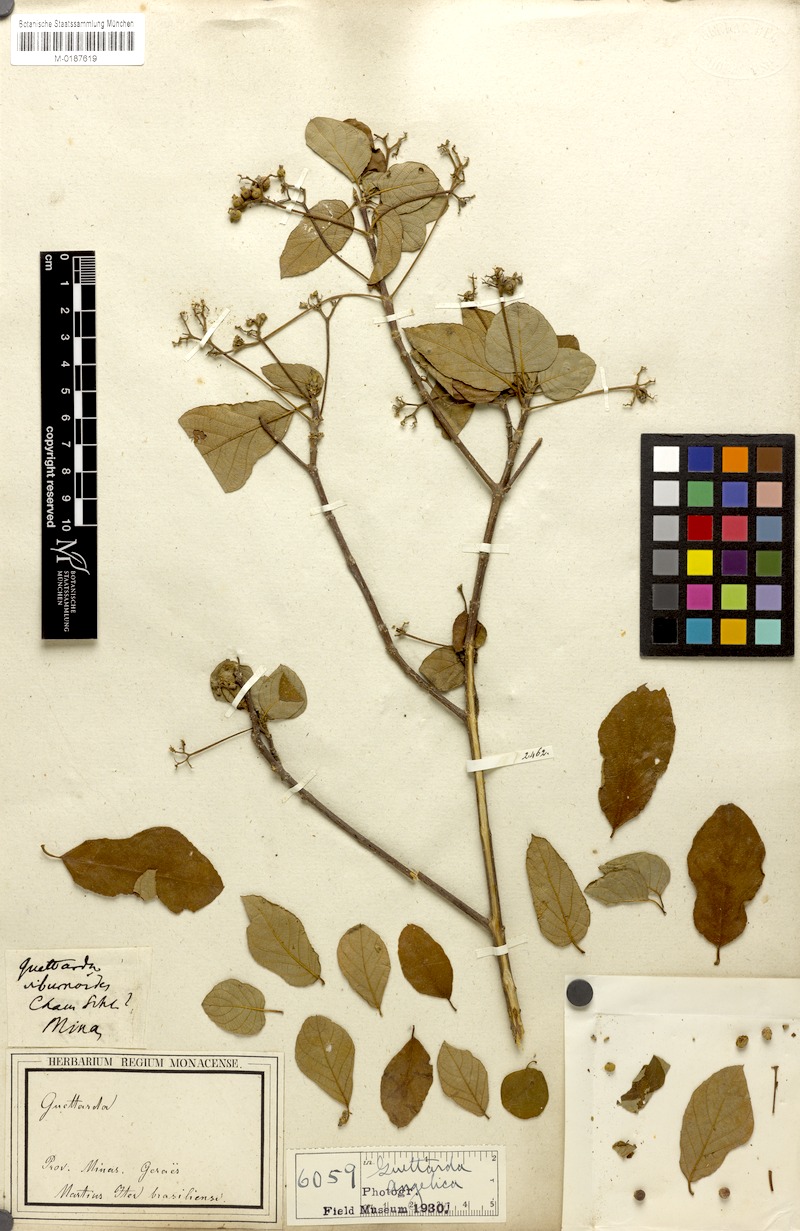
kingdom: Plantae
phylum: Tracheophyta
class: Magnoliopsida
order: Gentianales
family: Rubiaceae
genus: Guettarda
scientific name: Guettarda angelica
